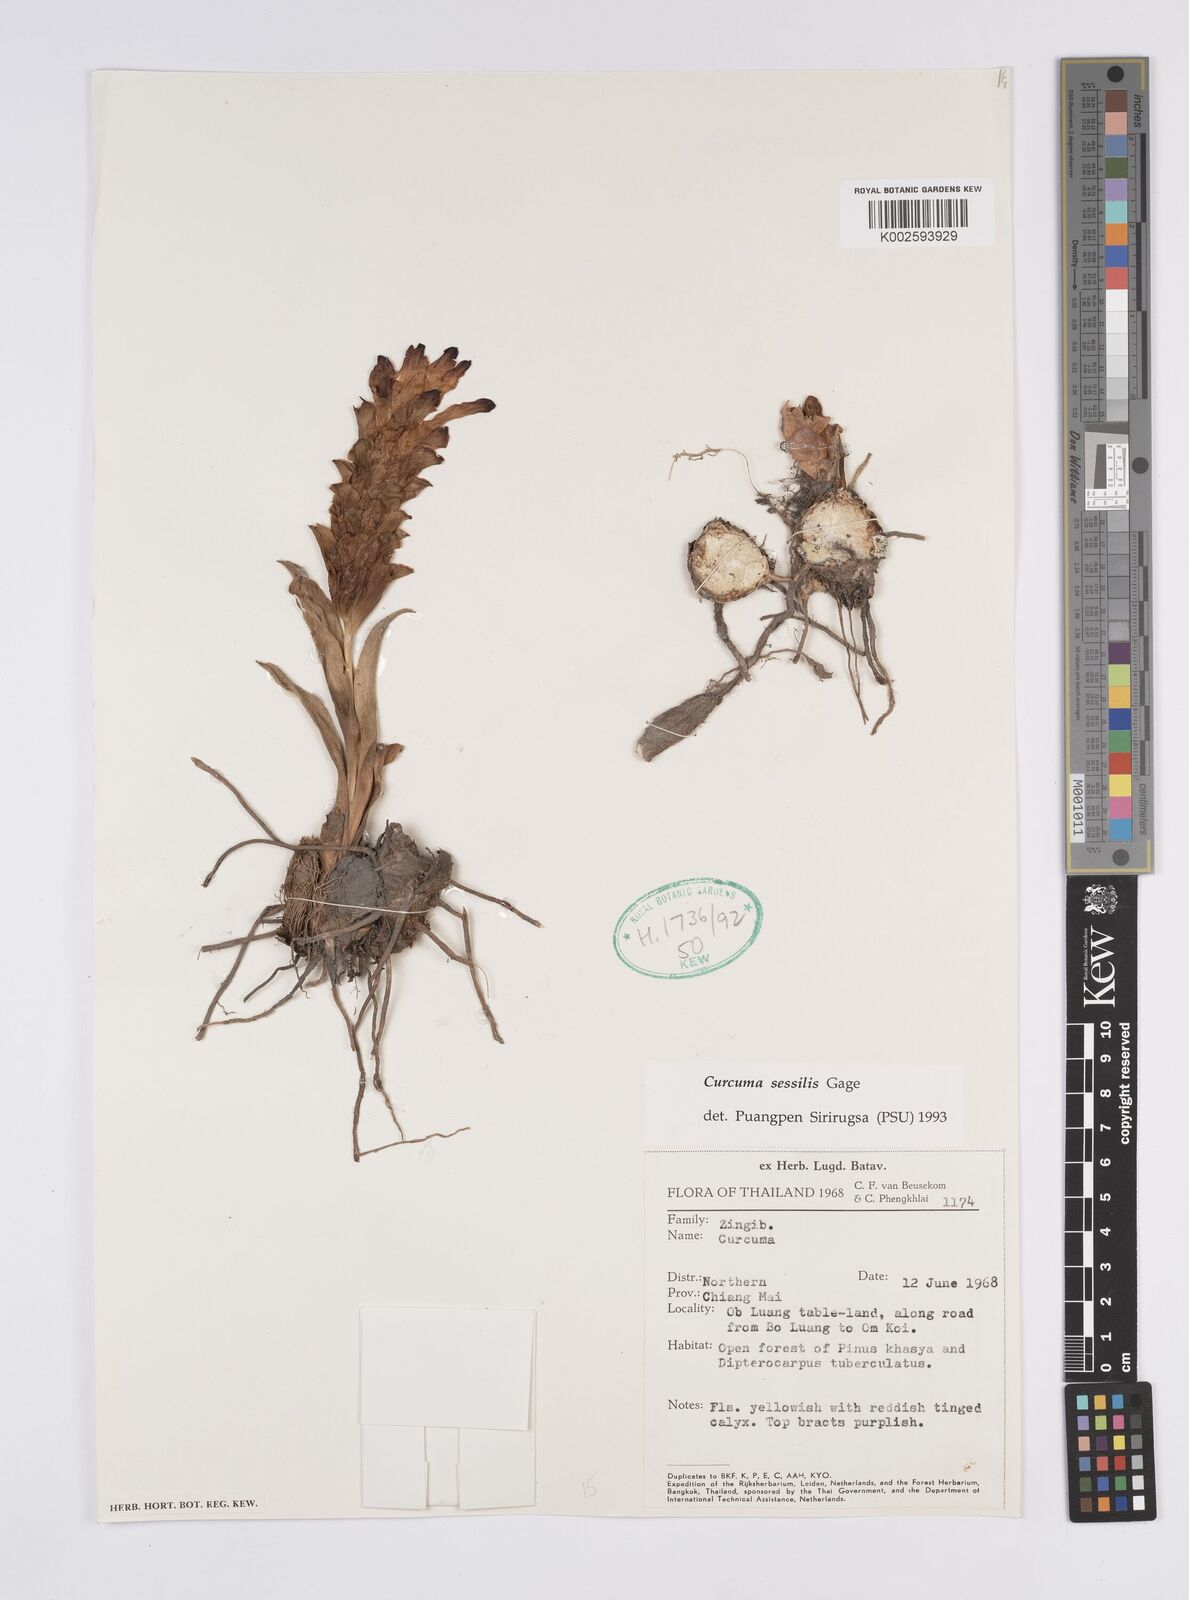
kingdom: Plantae
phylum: Tracheophyta
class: Liliopsida
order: Zingiberales
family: Zingiberaceae
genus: Curcuma
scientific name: Curcuma sessilis
